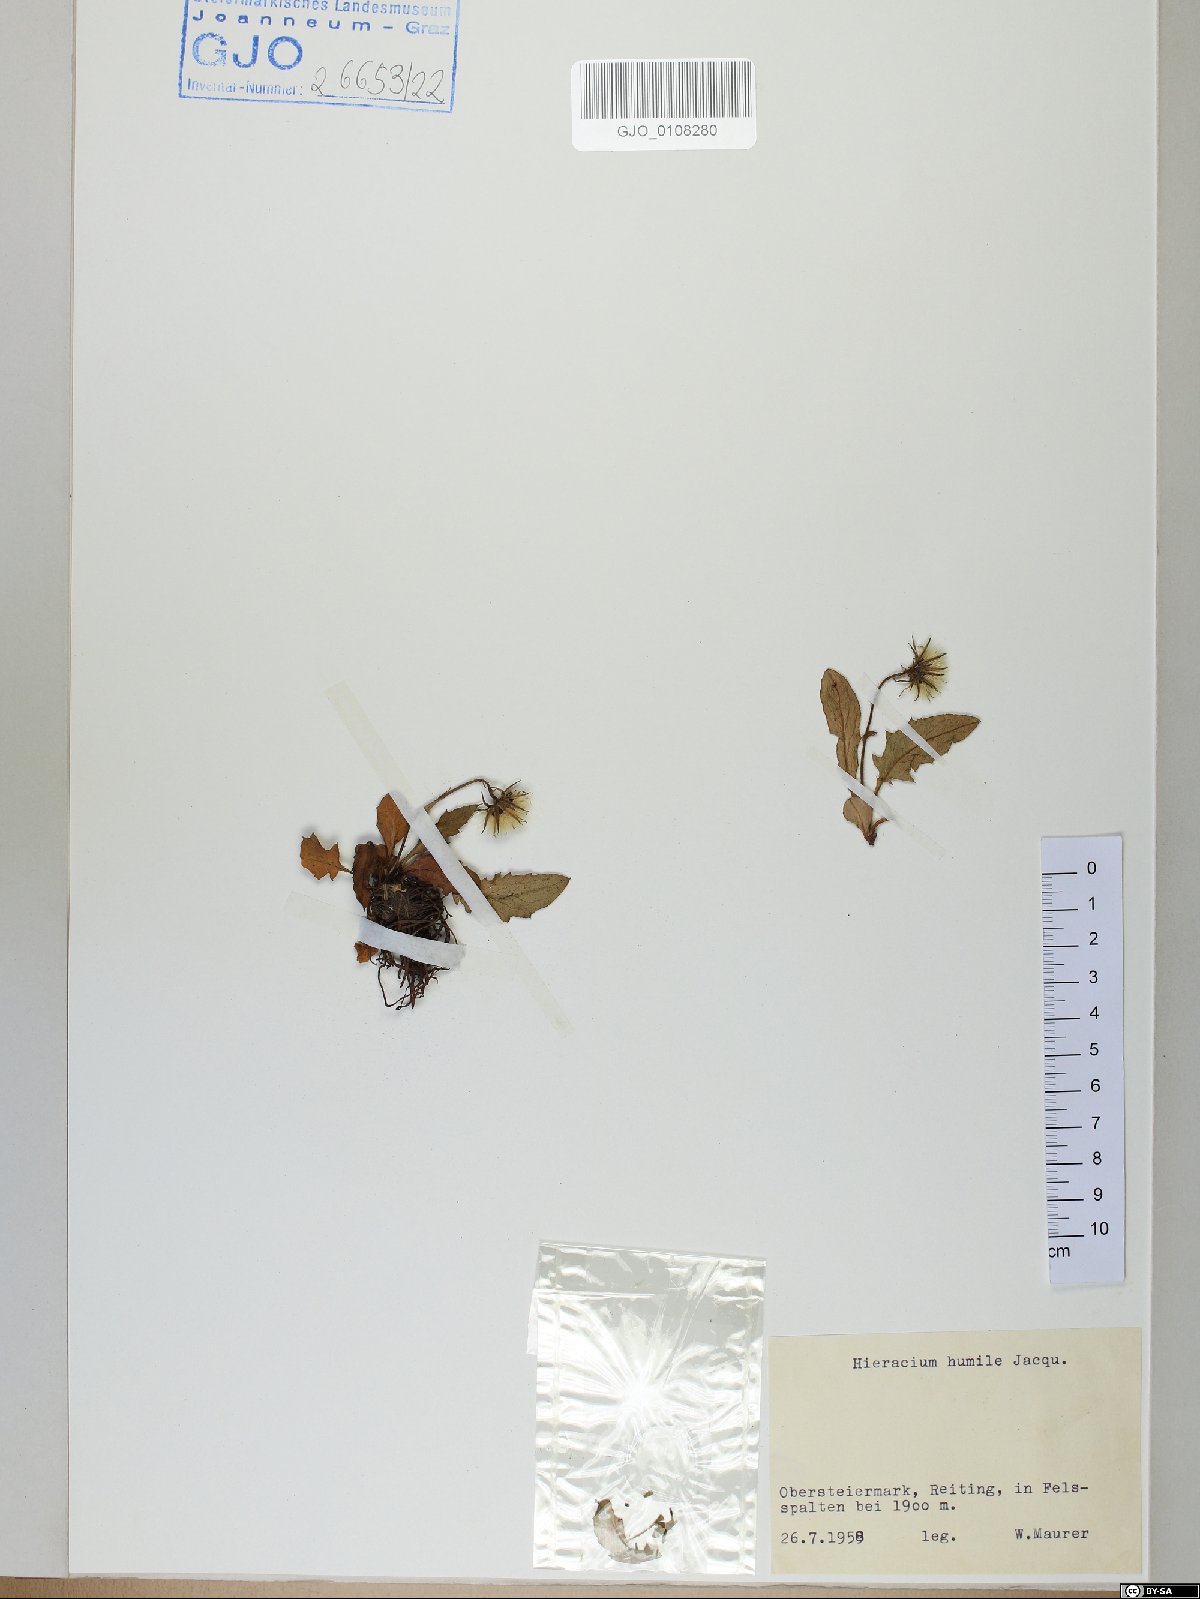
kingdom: Plantae
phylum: Tracheophyta
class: Magnoliopsida
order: Asterales
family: Asteraceae
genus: Hieracium
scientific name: Hieracium humile
